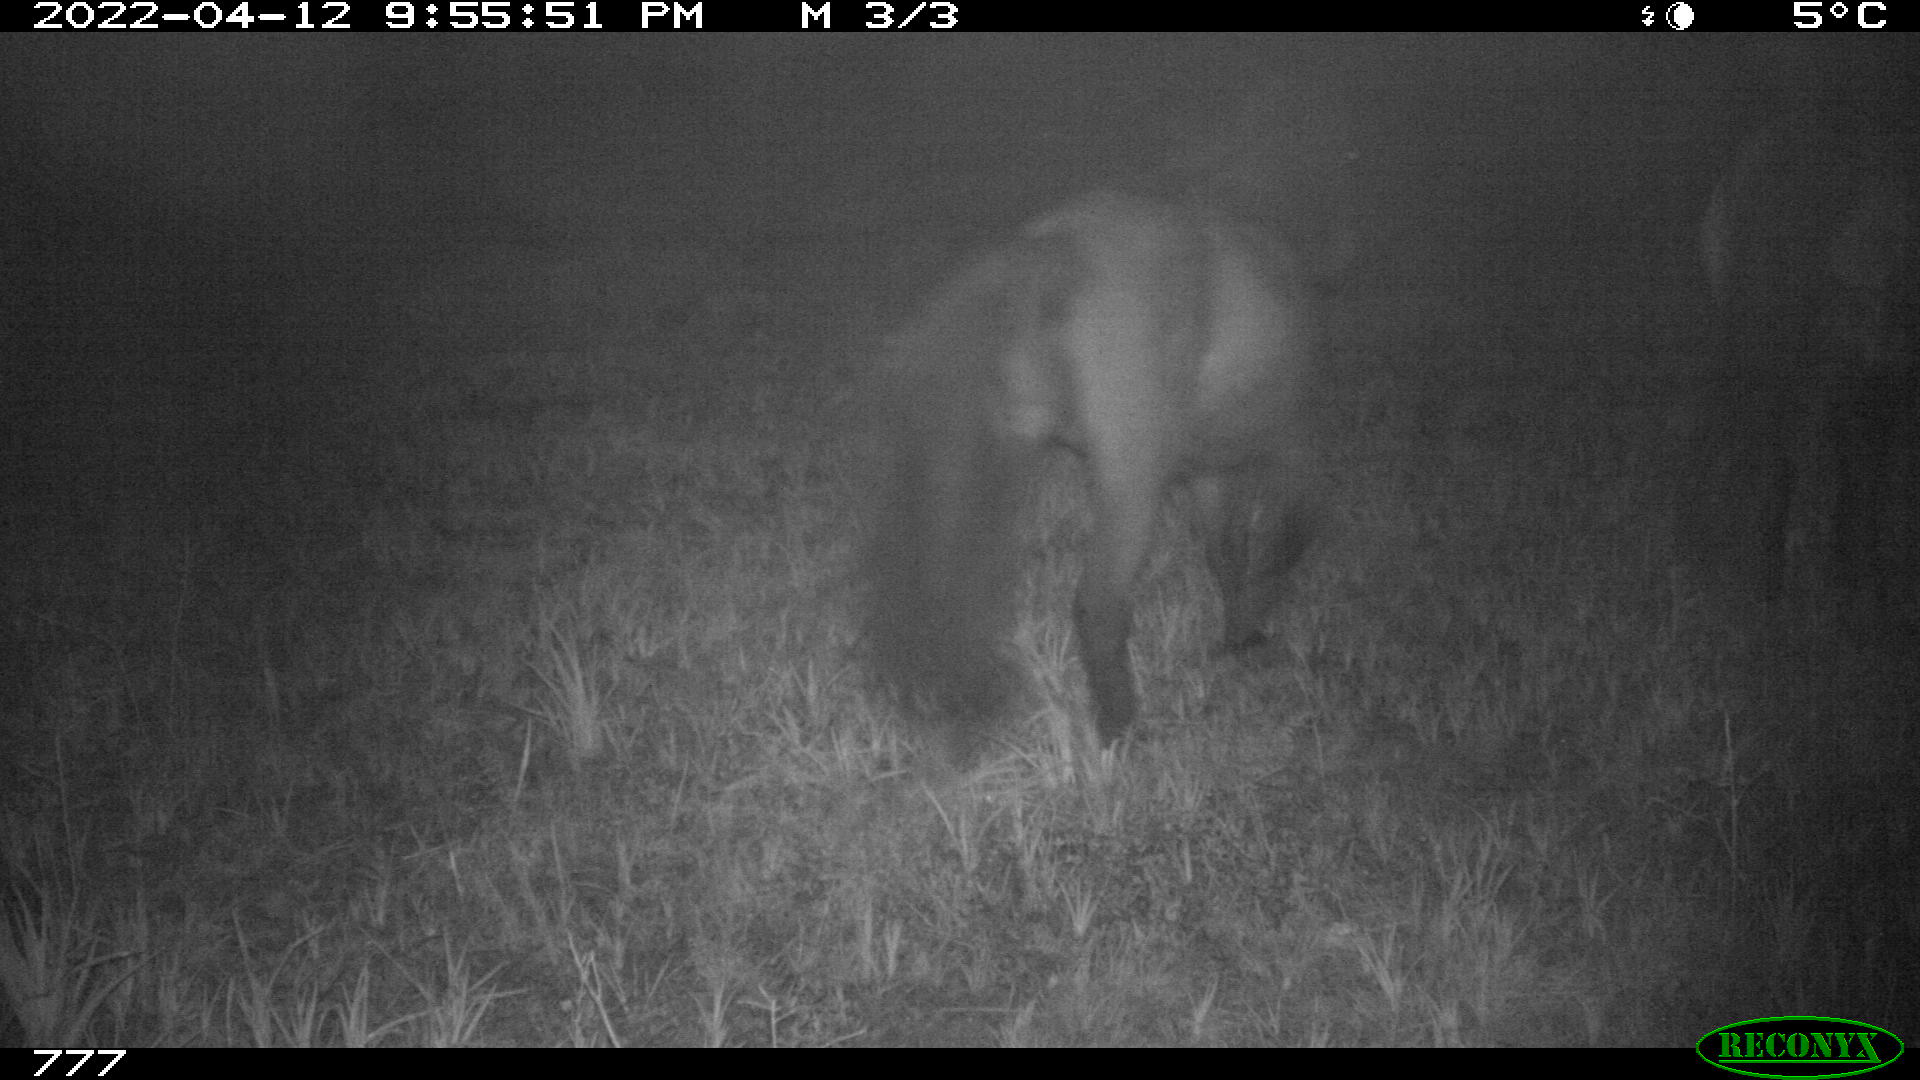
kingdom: Animalia
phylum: Chordata
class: Mammalia
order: Perissodactyla
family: Equidae
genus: Equus
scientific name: Equus caballus
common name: Horse
